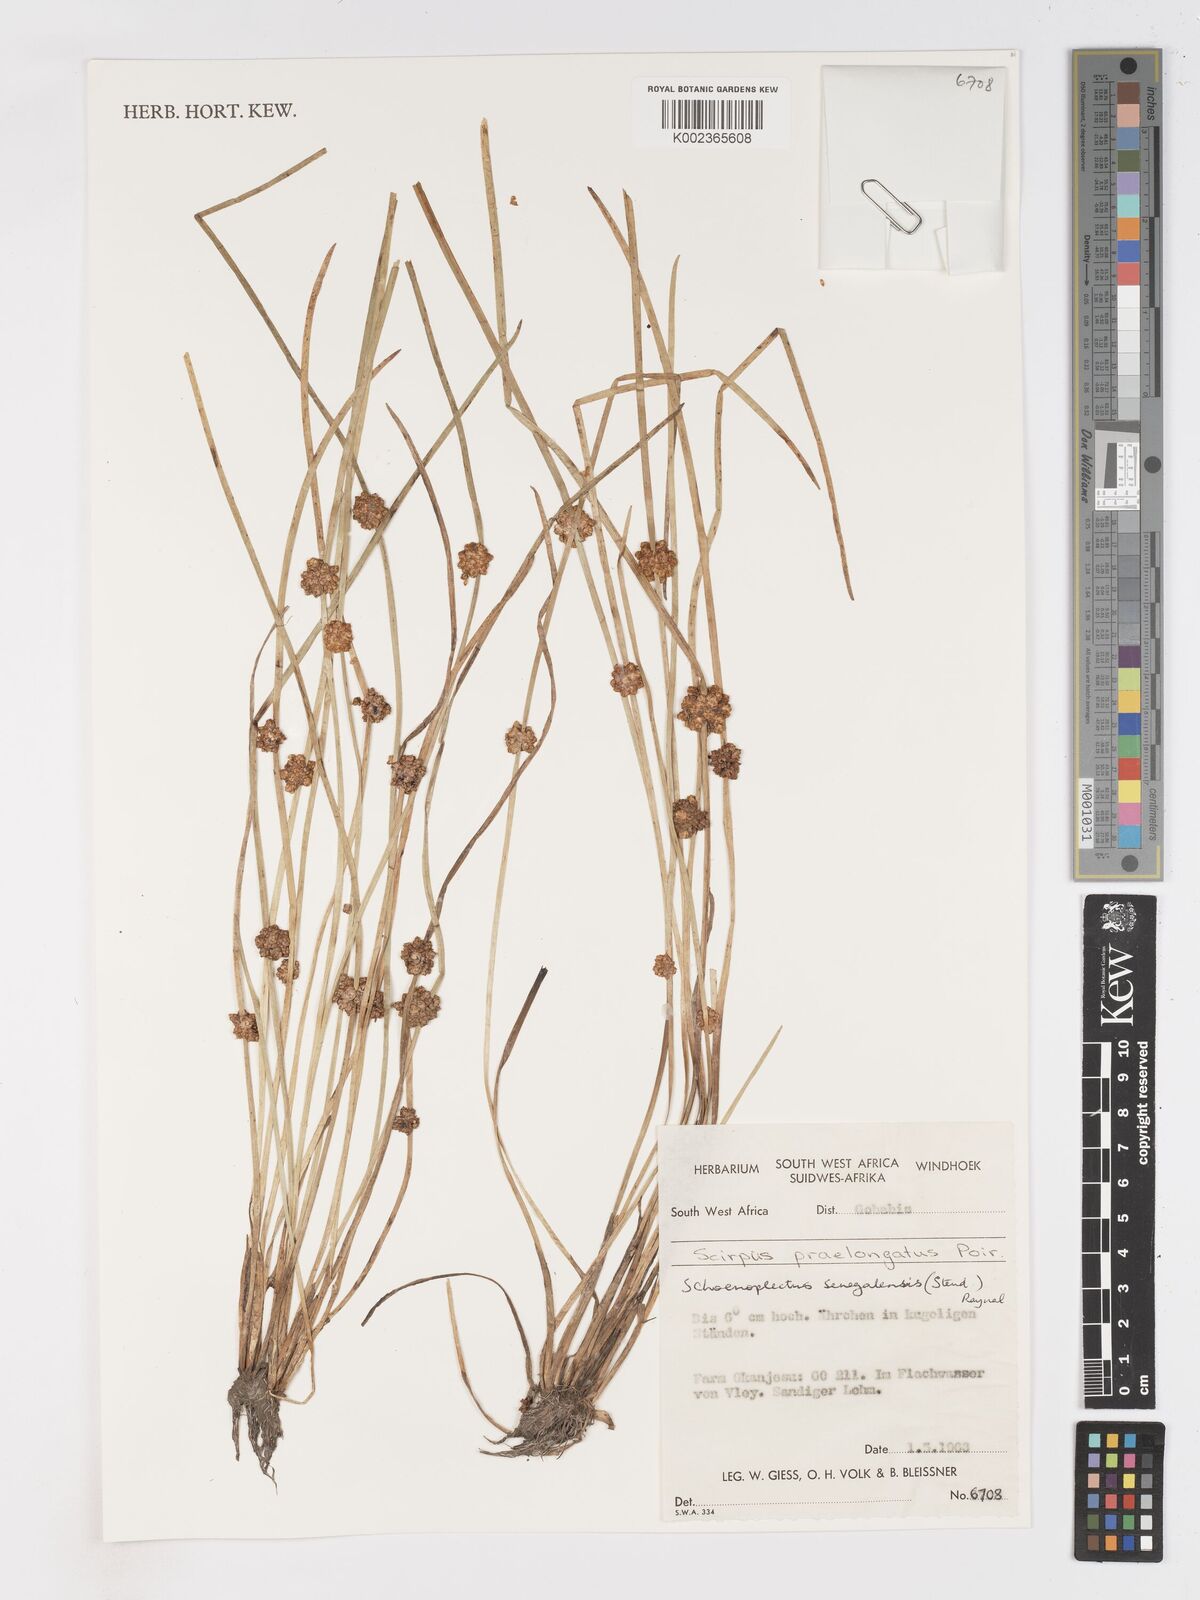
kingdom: Plantae
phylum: Tracheophyta
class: Liliopsida
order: Poales
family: Cyperaceae
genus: Schoenoplectiella
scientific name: Schoenoplectiella senegalensis
